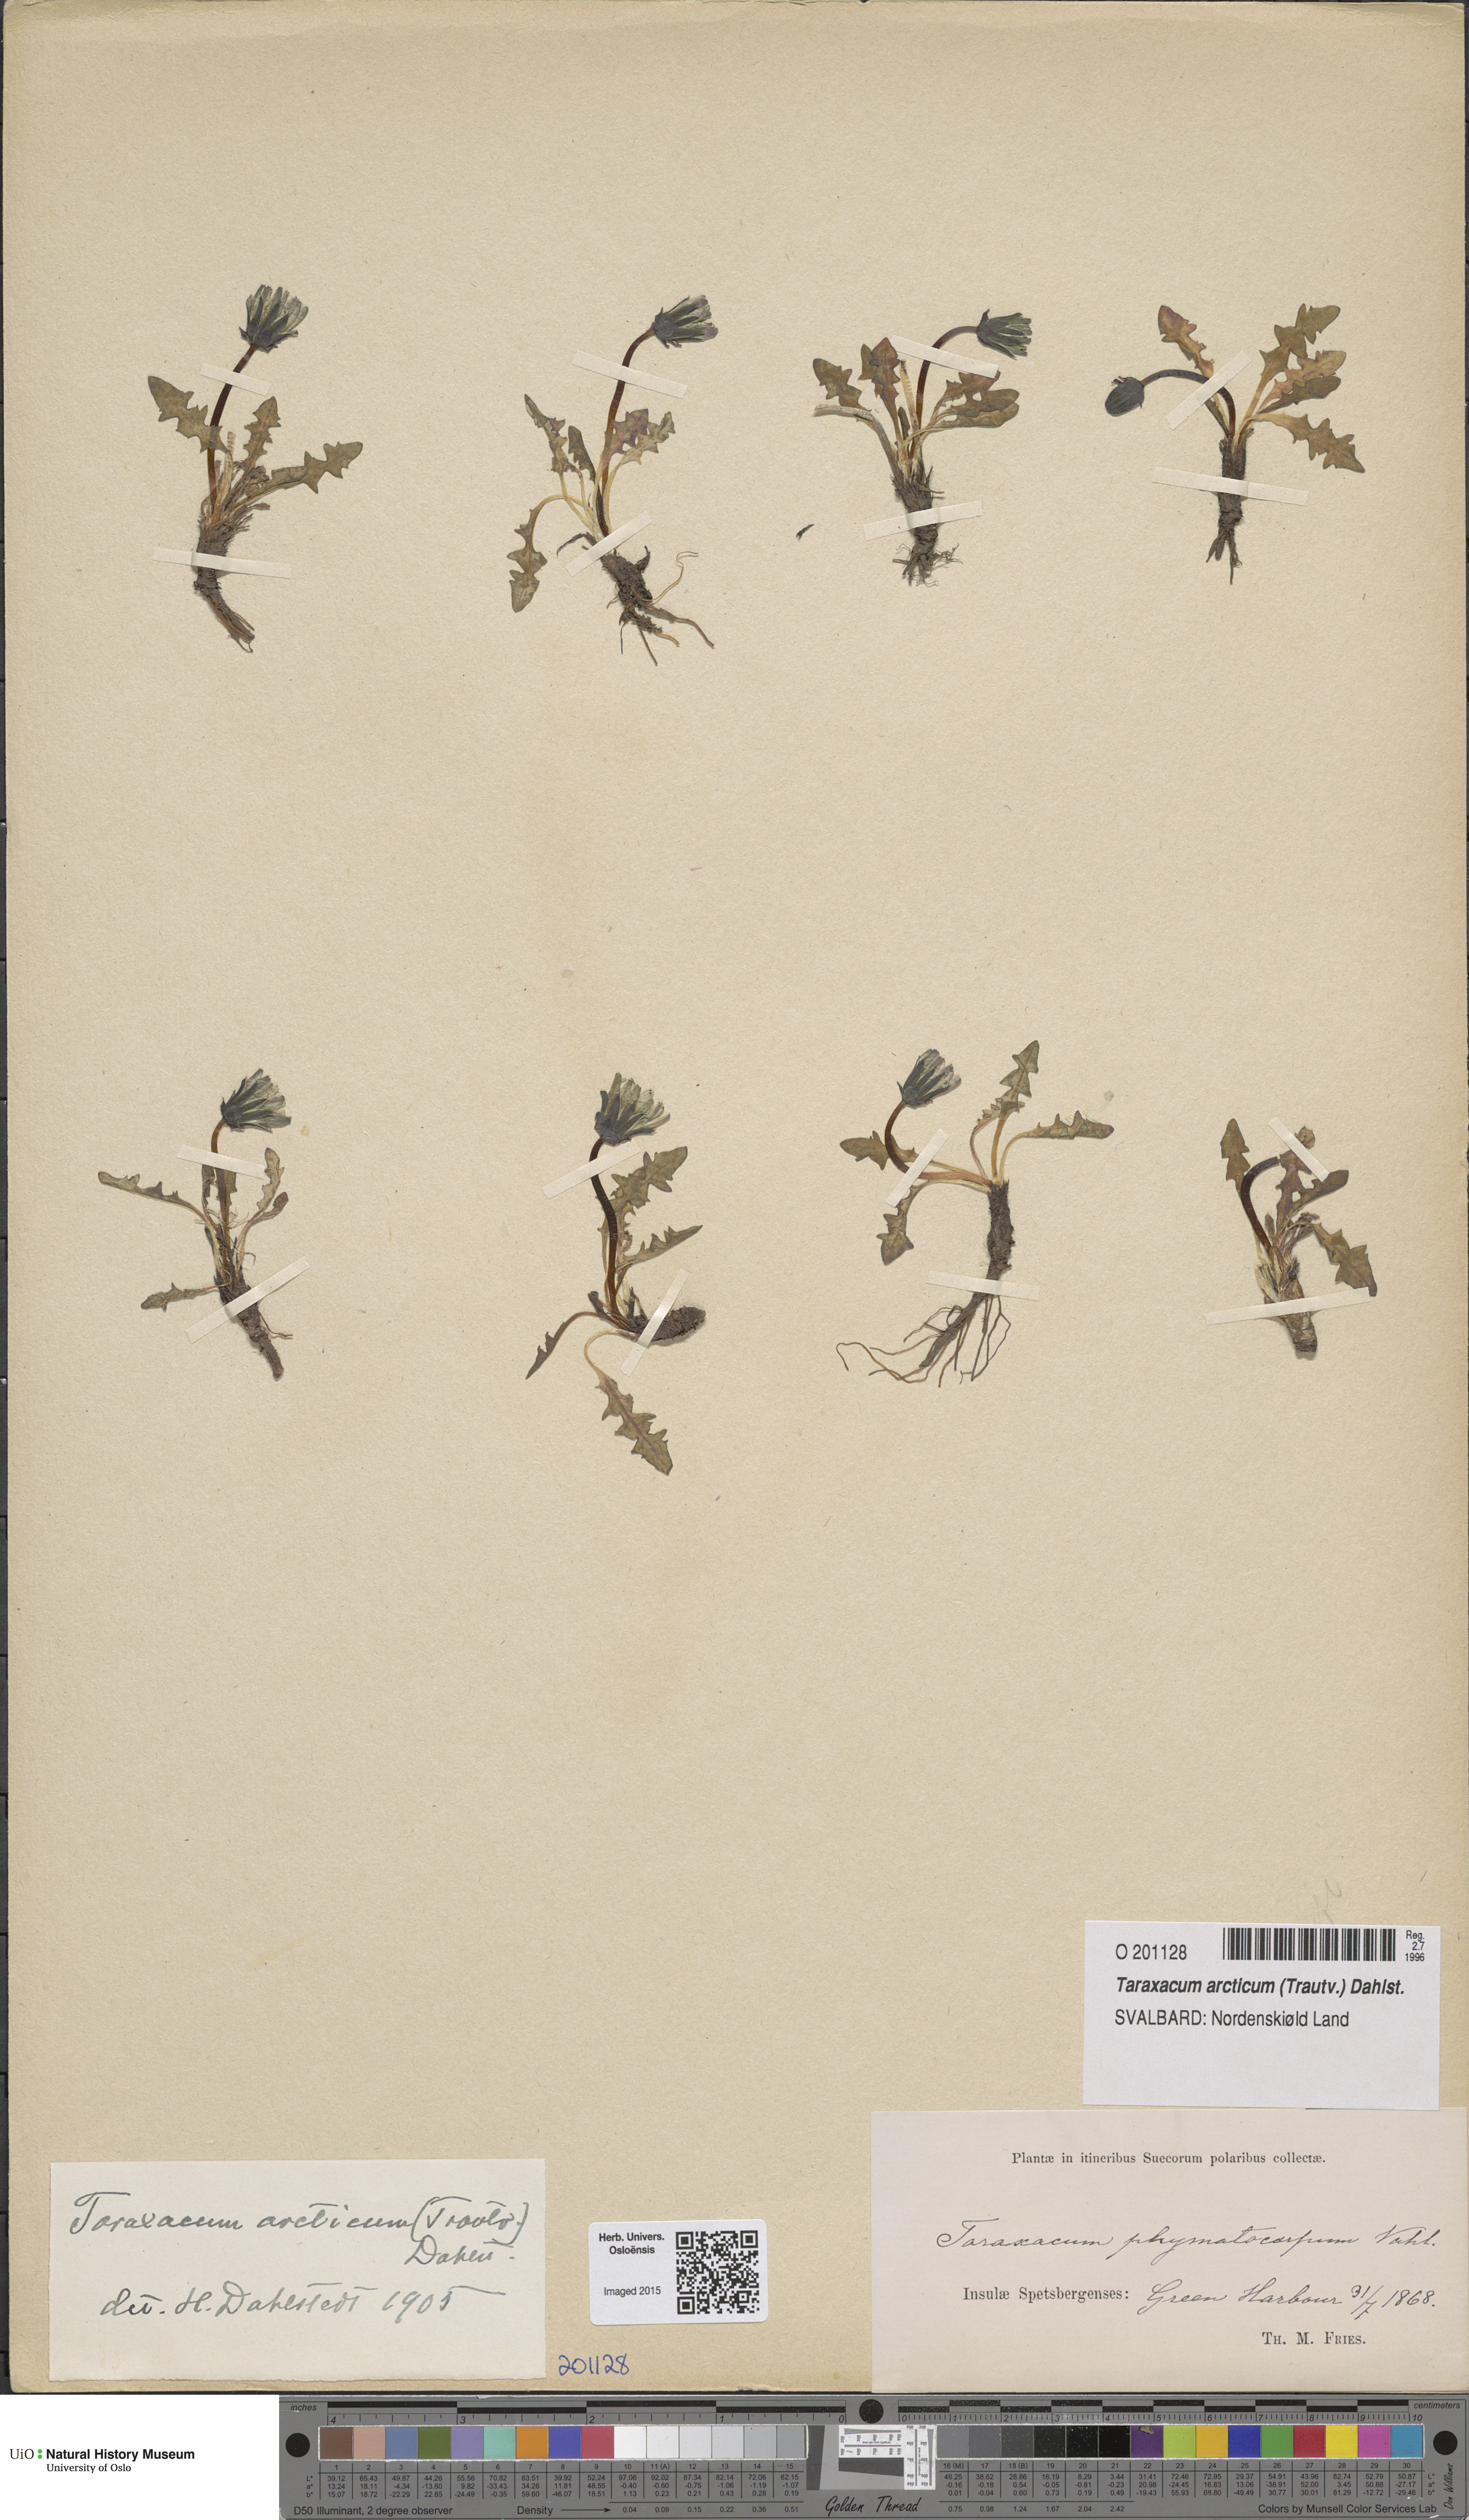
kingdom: Plantae
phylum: Tracheophyta
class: Magnoliopsida
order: Asterales
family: Asteraceae
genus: Taraxacum
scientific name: Taraxacum arcticum
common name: Arctic dandelion
